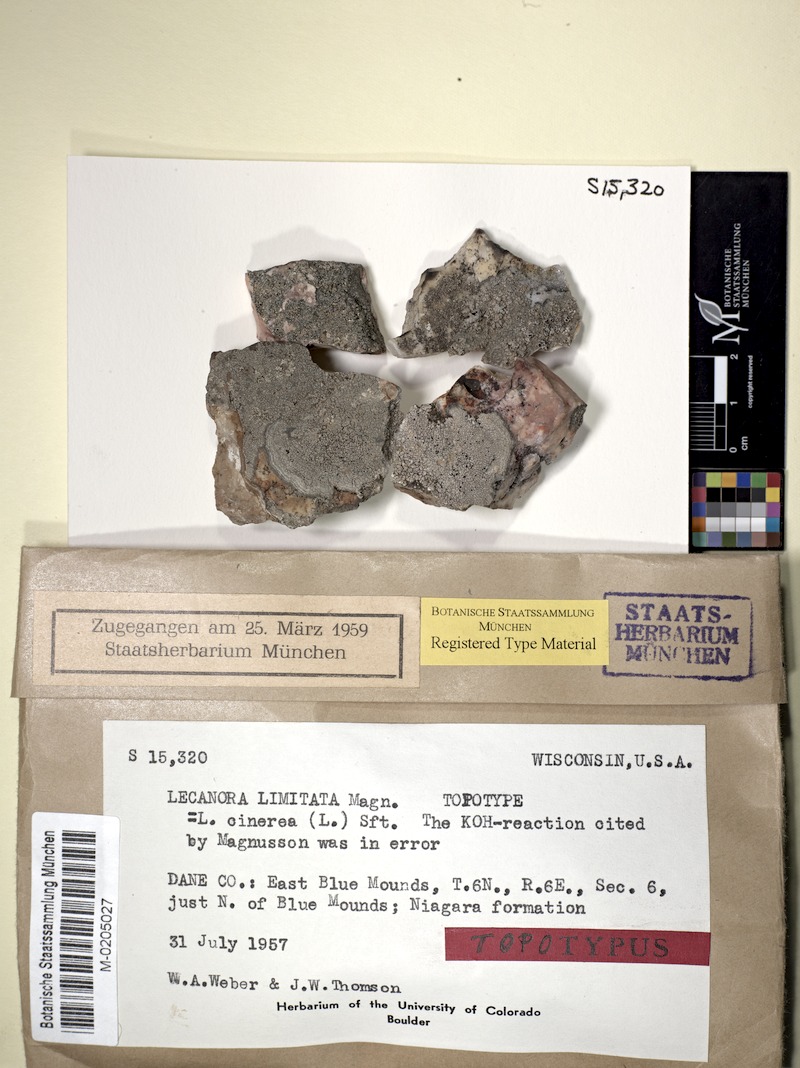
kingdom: Fungi
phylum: Ascomycota
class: Lecanoromycetes
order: Hymeneliales
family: Hymeneliaceae
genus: Aspicilia
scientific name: Aspicilia limitata
